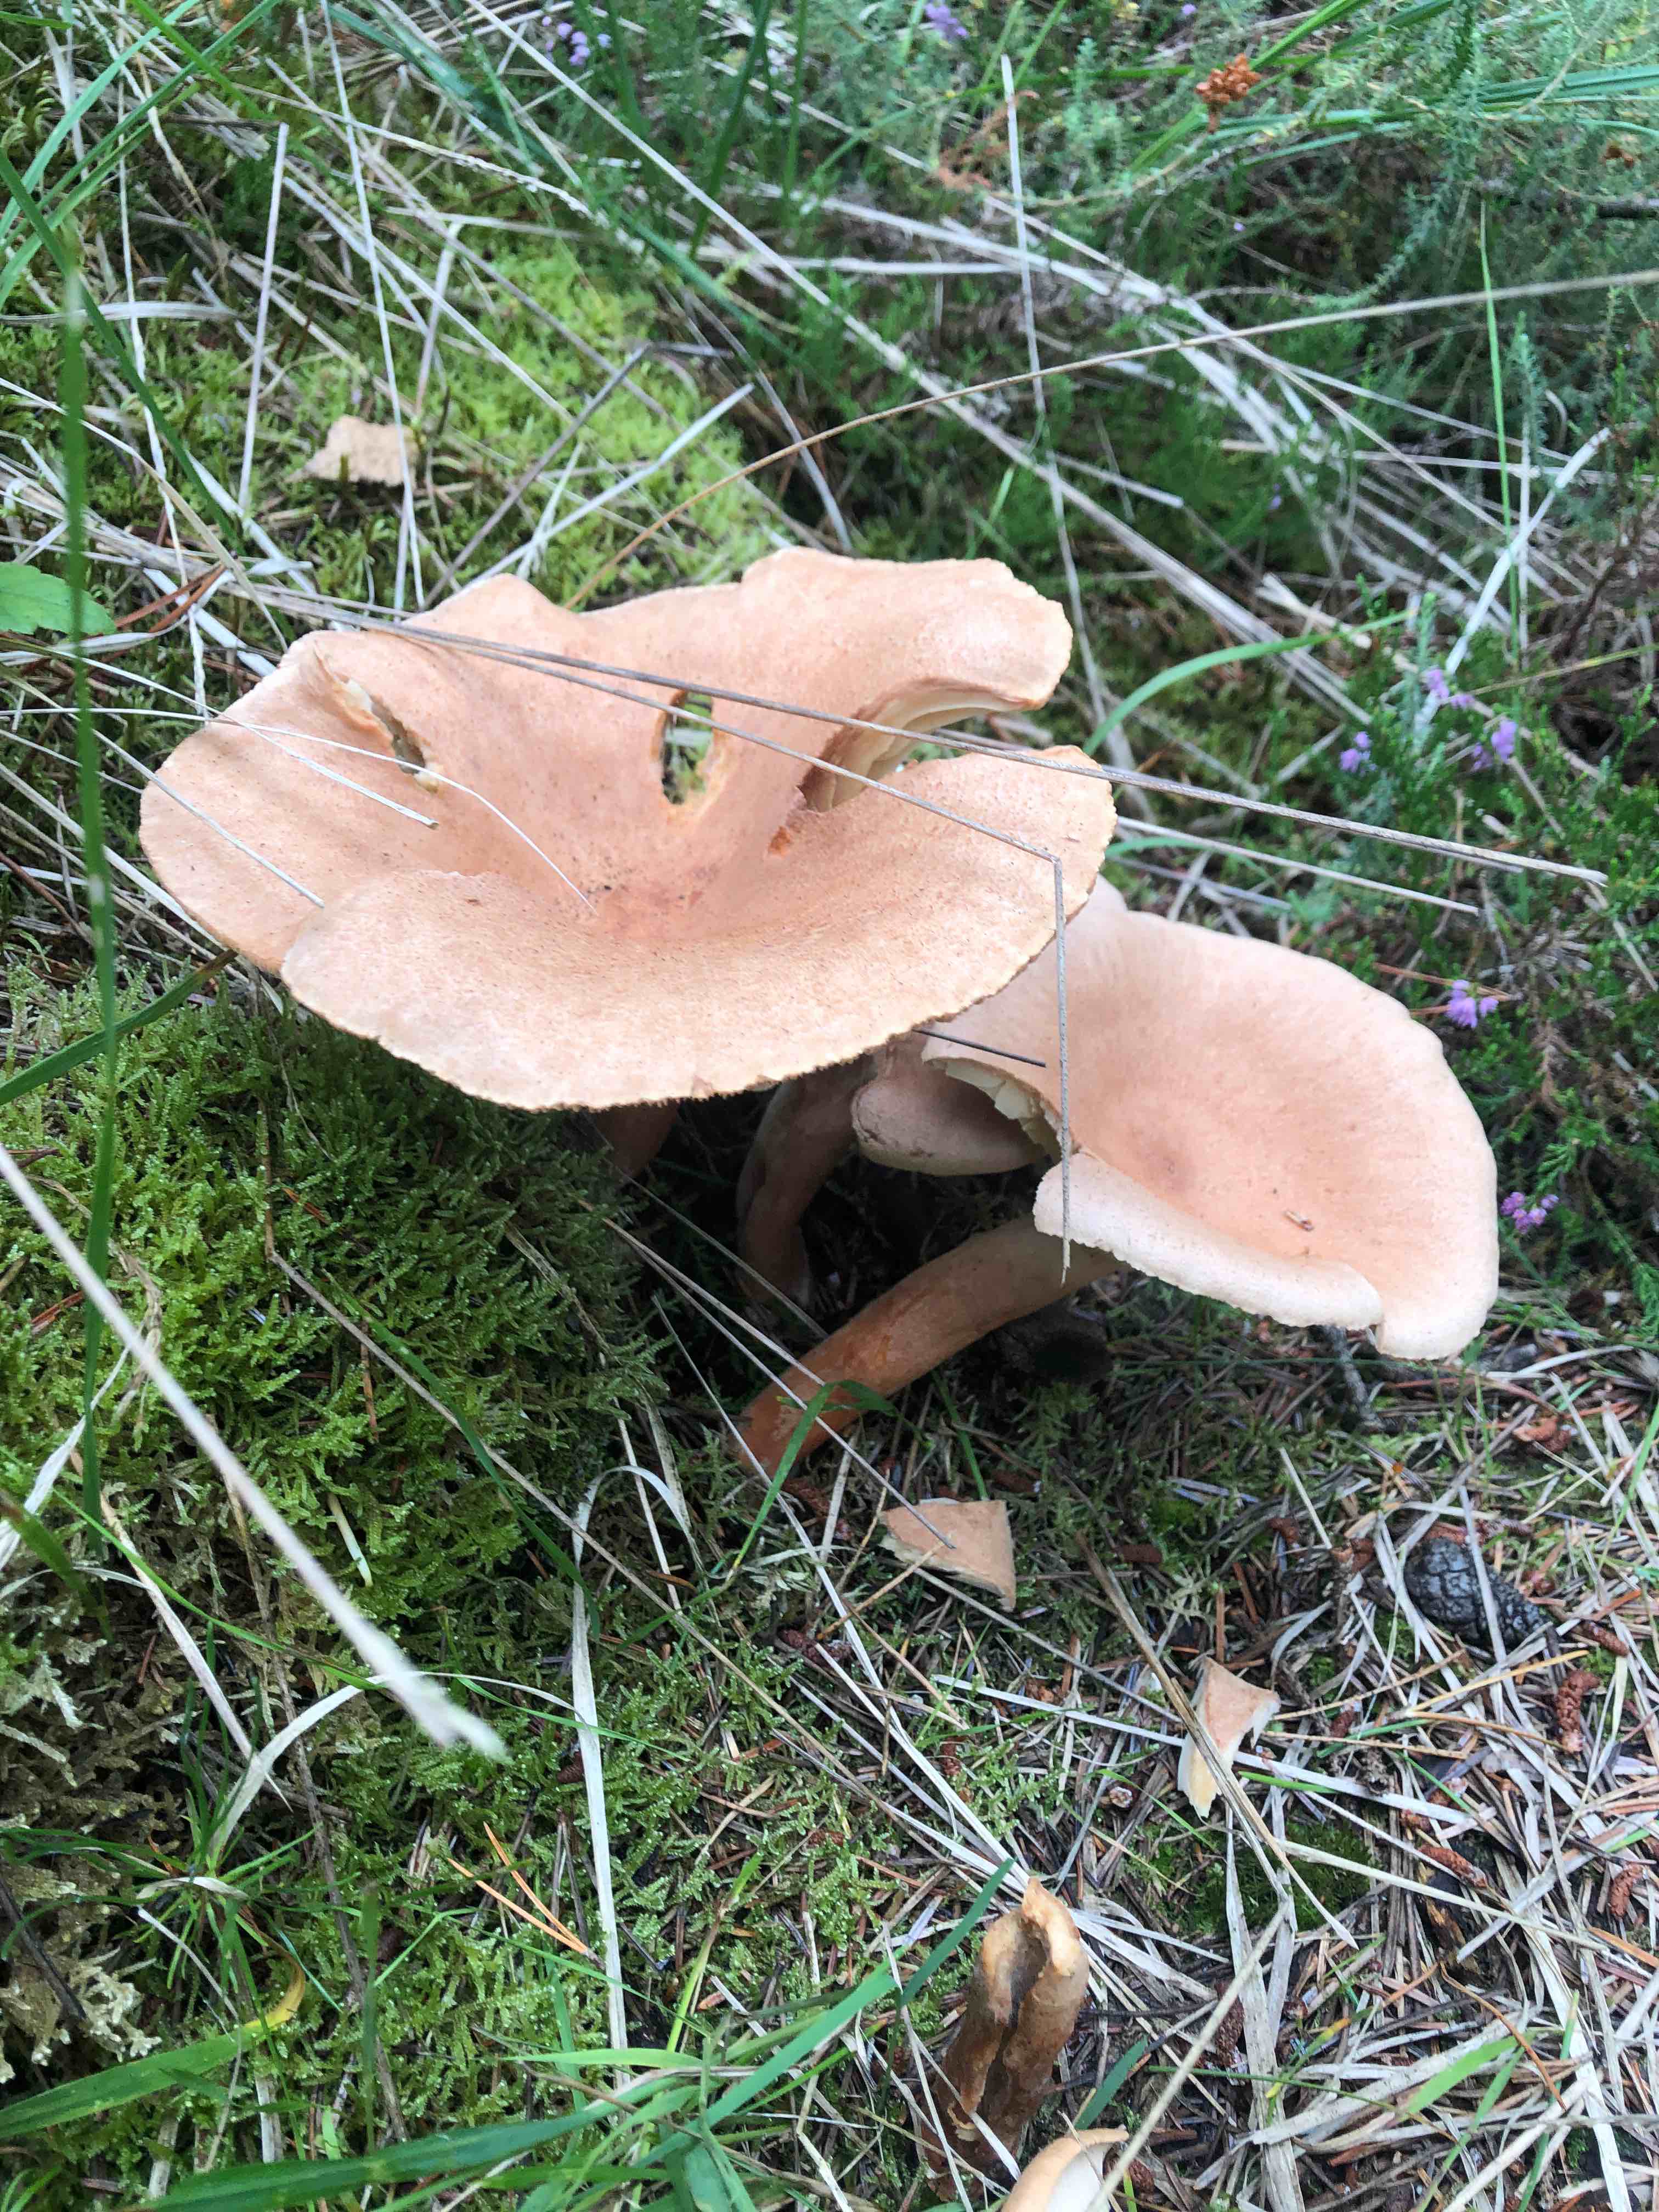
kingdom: Fungi
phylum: Basidiomycota
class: Agaricomycetes
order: Russulales
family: Russulaceae
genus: Lactarius
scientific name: Lactarius helvus
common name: mose-mælkehat
